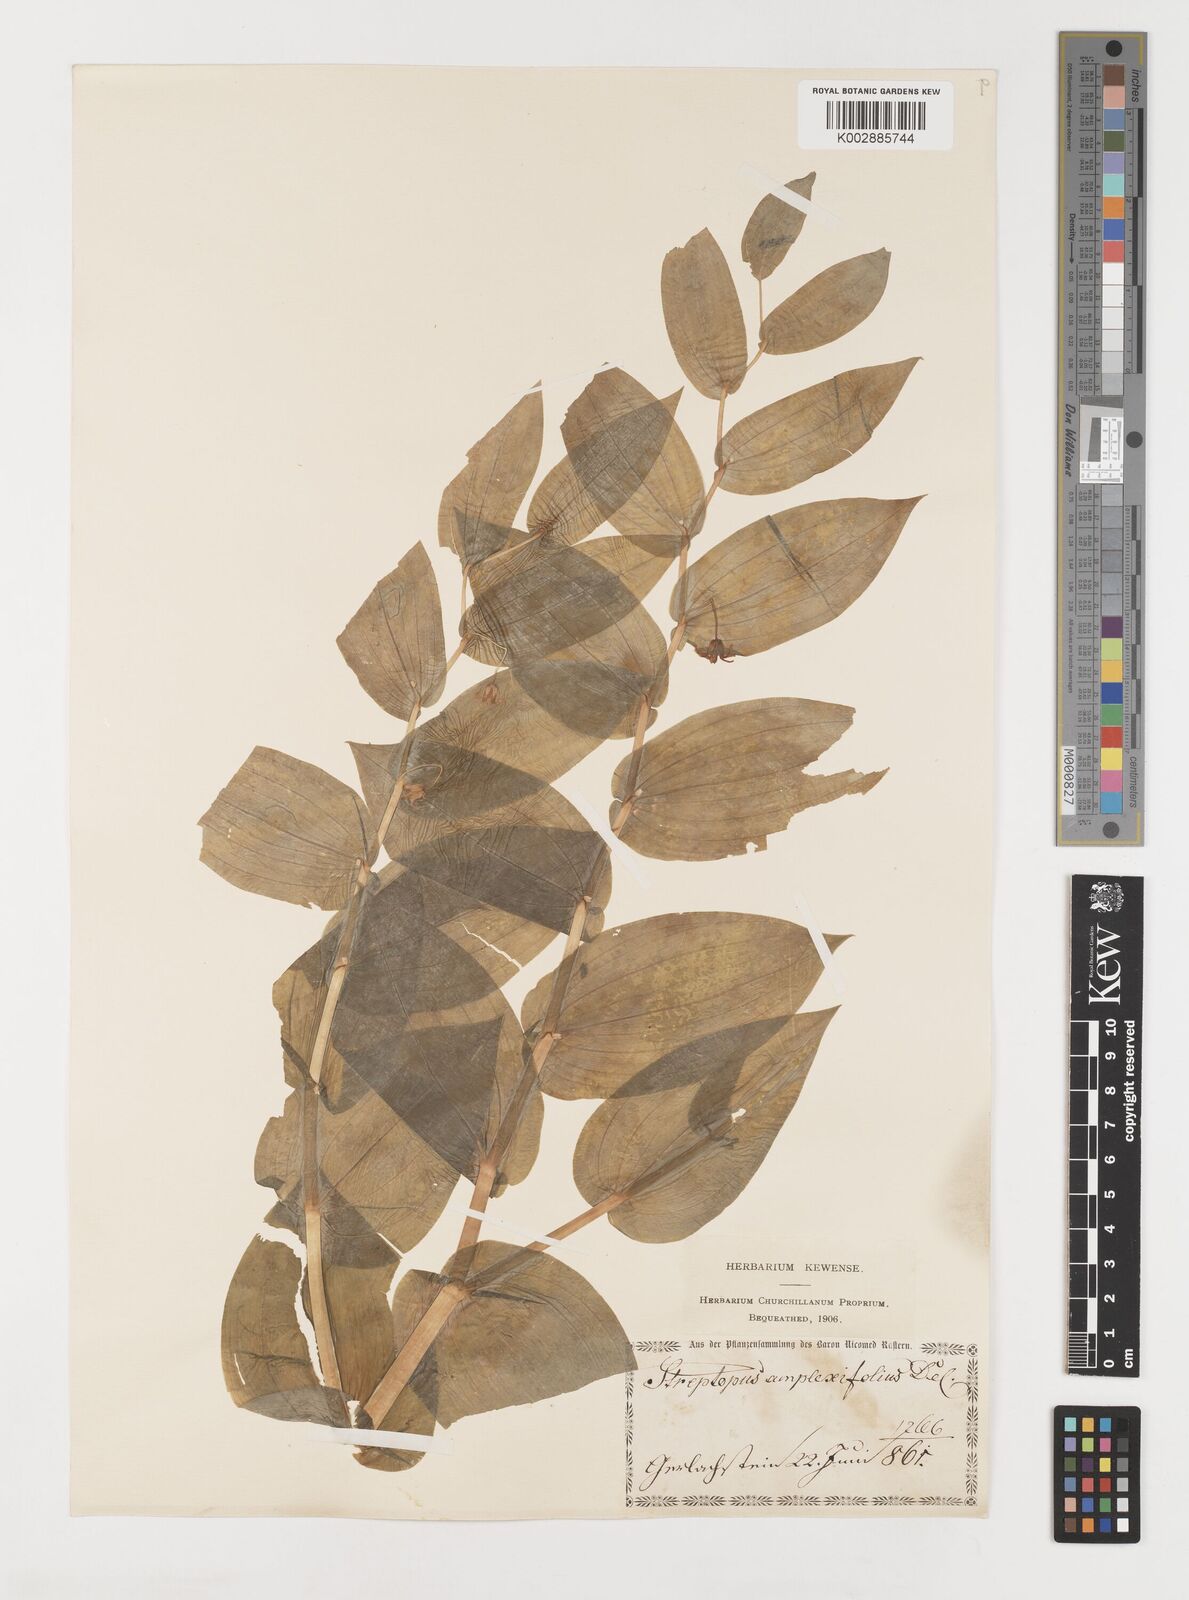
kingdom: Plantae
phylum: Tracheophyta
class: Liliopsida
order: Liliales
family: Liliaceae
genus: Streptopus
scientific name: Streptopus amplexifolius
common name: Clasp twisted stalk
